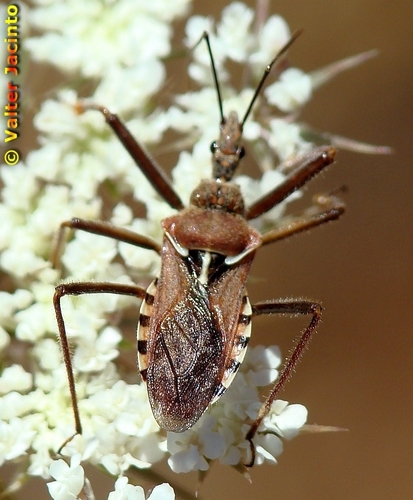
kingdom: Animalia
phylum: Arthropoda
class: Insecta
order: Hemiptera
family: Reduviidae
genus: Rhynocoris
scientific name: Rhynocoris erythropus
